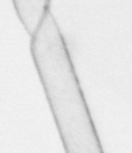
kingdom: Chromista
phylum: Ochrophyta
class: Bacillariophyceae
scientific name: Bacillariophyceae
